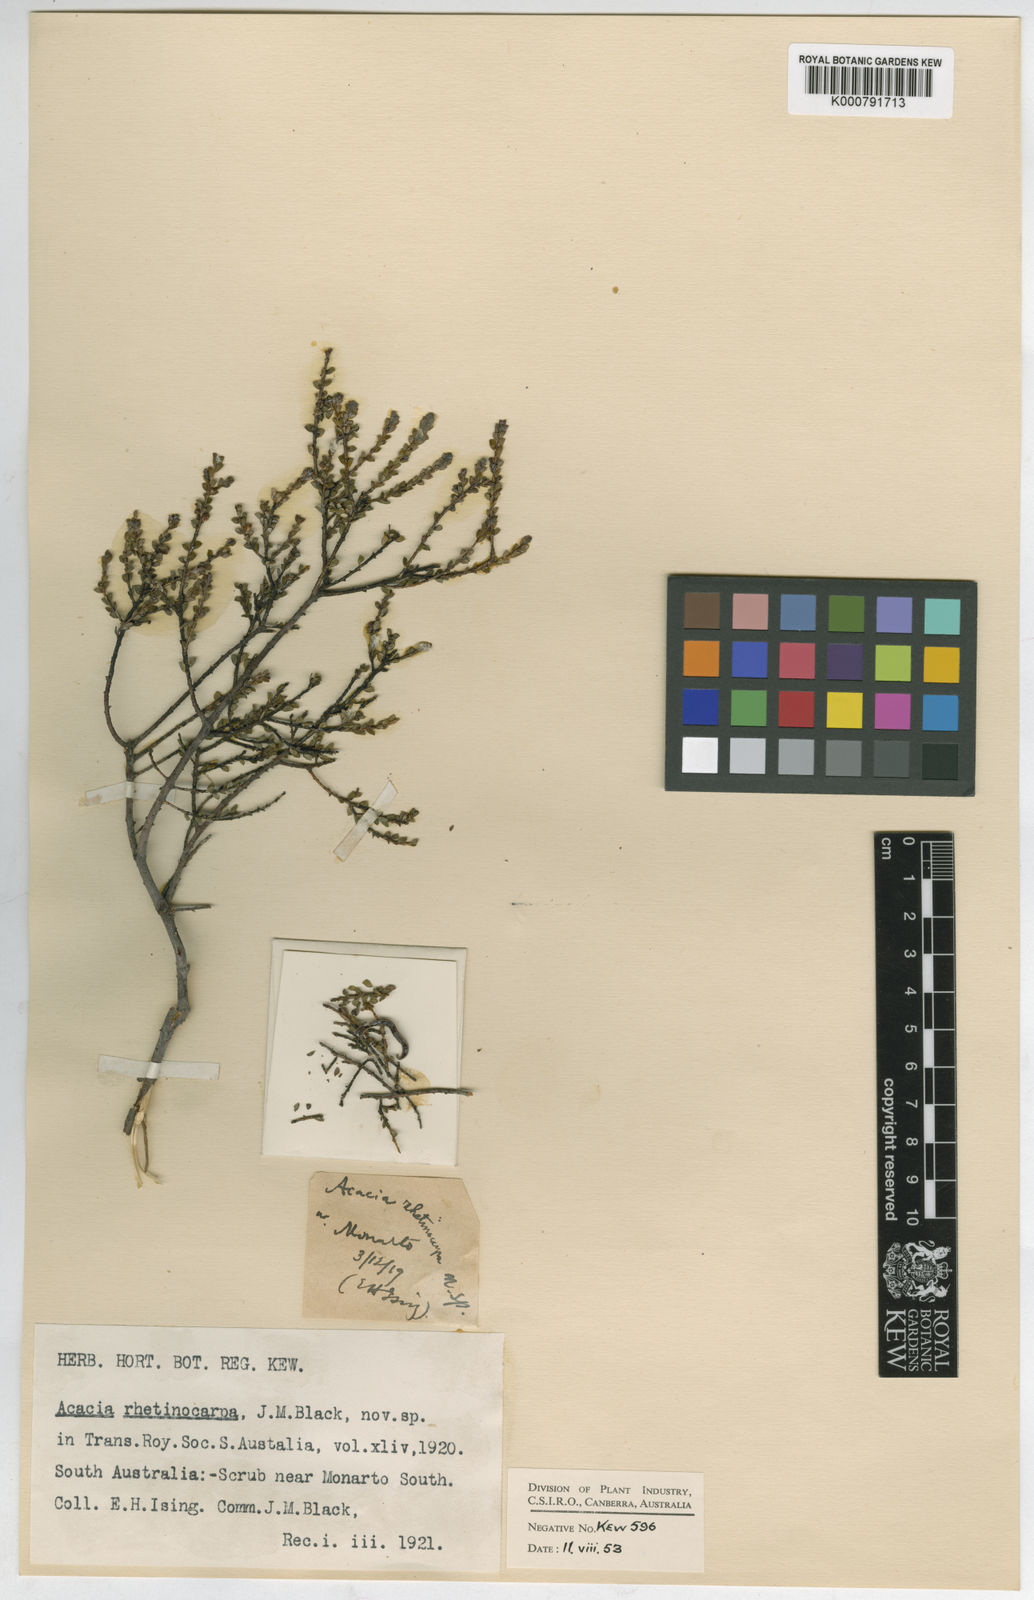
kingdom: Plantae
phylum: Tracheophyta
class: Magnoliopsida
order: Fabales
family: Fabaceae
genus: Acacia
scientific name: Acacia brachyclada
